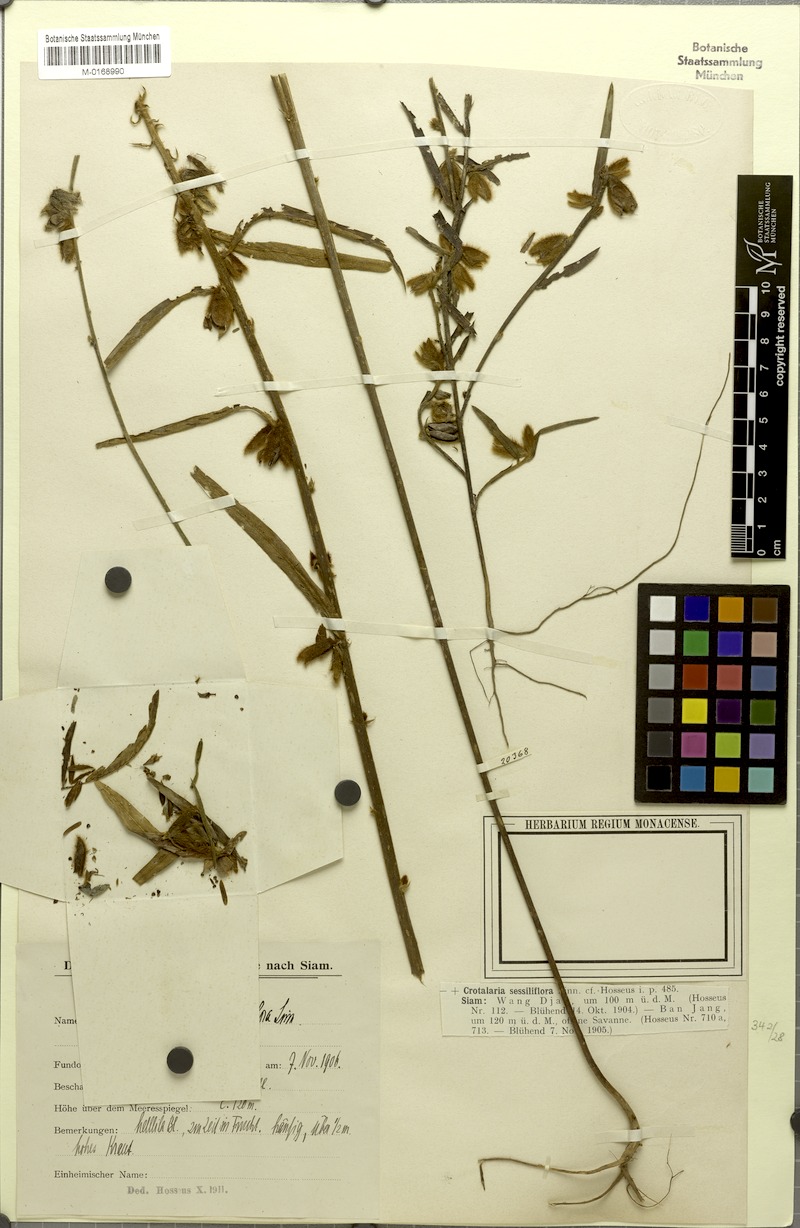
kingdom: Plantae
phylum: Tracheophyta
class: Magnoliopsida
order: Fabales
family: Fabaceae
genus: Crotalaria
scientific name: Crotalaria sessiliflora
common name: Rattlebox
